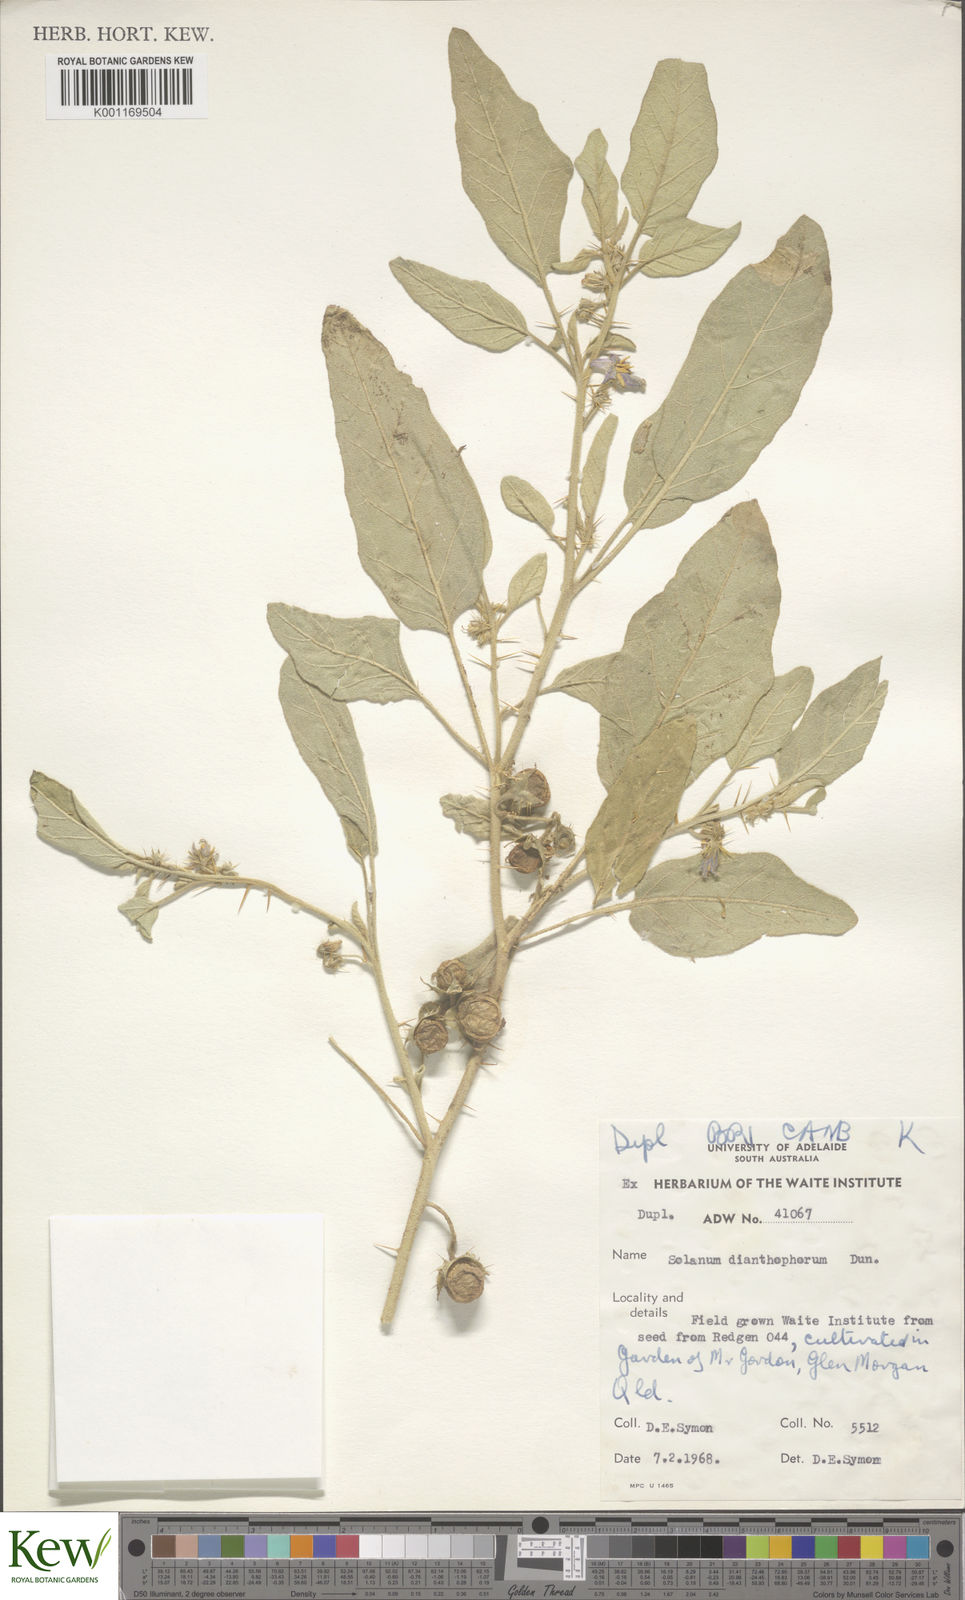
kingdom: Plantae
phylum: Tracheophyta
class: Magnoliopsida
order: Solanales
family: Solanaceae
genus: Solanum
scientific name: Solanum dianthophorum
